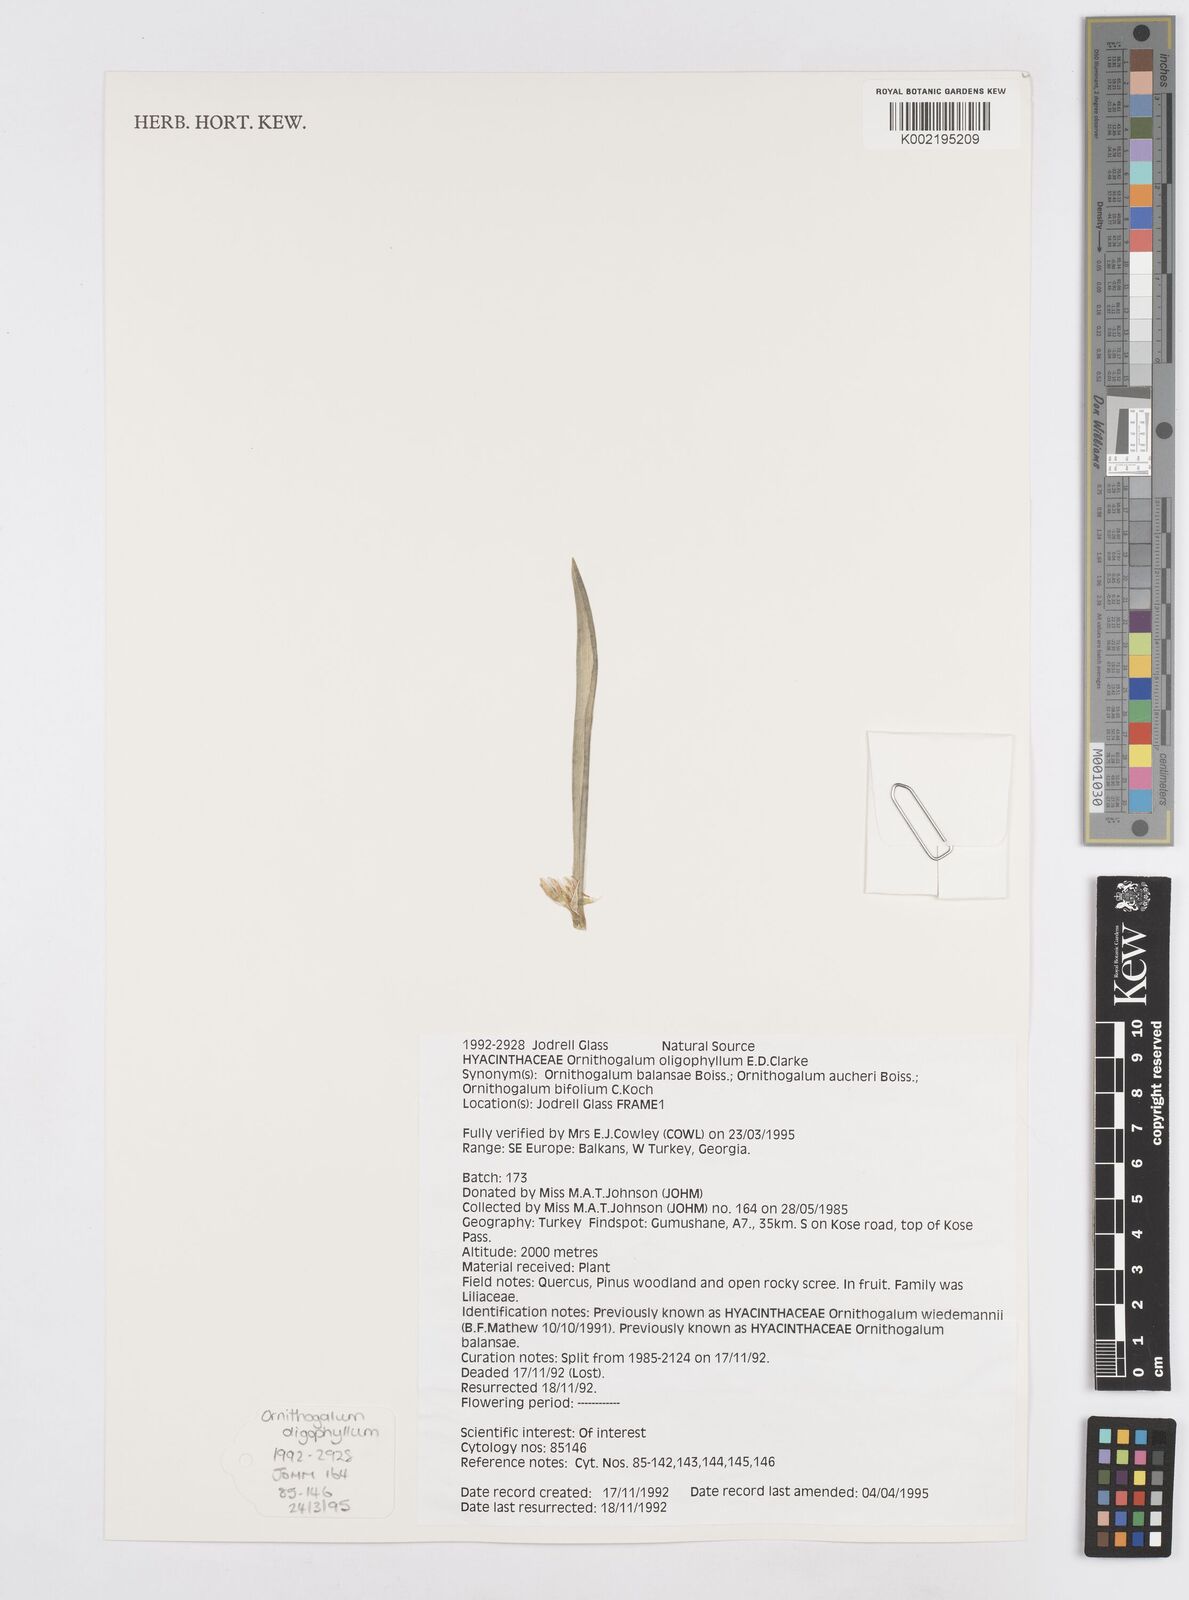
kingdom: Plantae
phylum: Tracheophyta
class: Liliopsida
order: Asparagales
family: Asparagaceae
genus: Ornithogalum
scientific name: Ornithogalum oligophyllum
